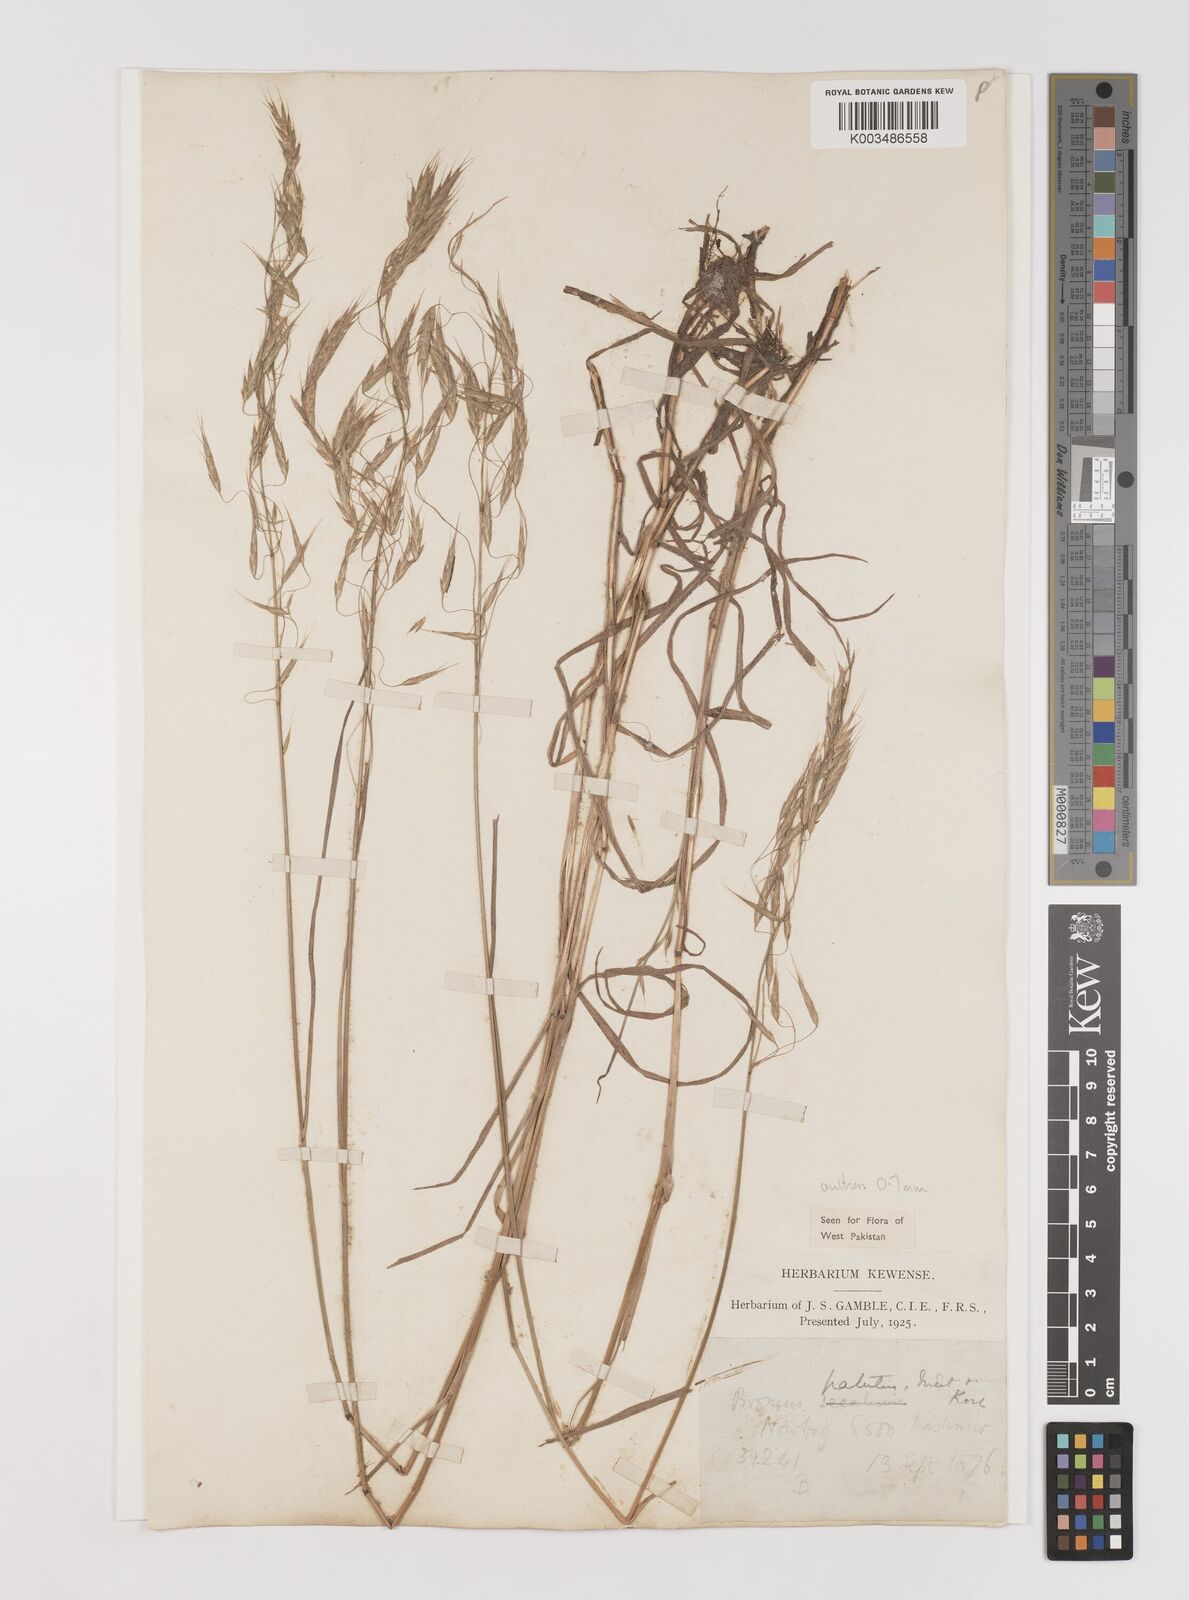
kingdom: Plantae
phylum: Tracheophyta
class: Liliopsida
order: Poales
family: Poaceae
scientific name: Poaceae
